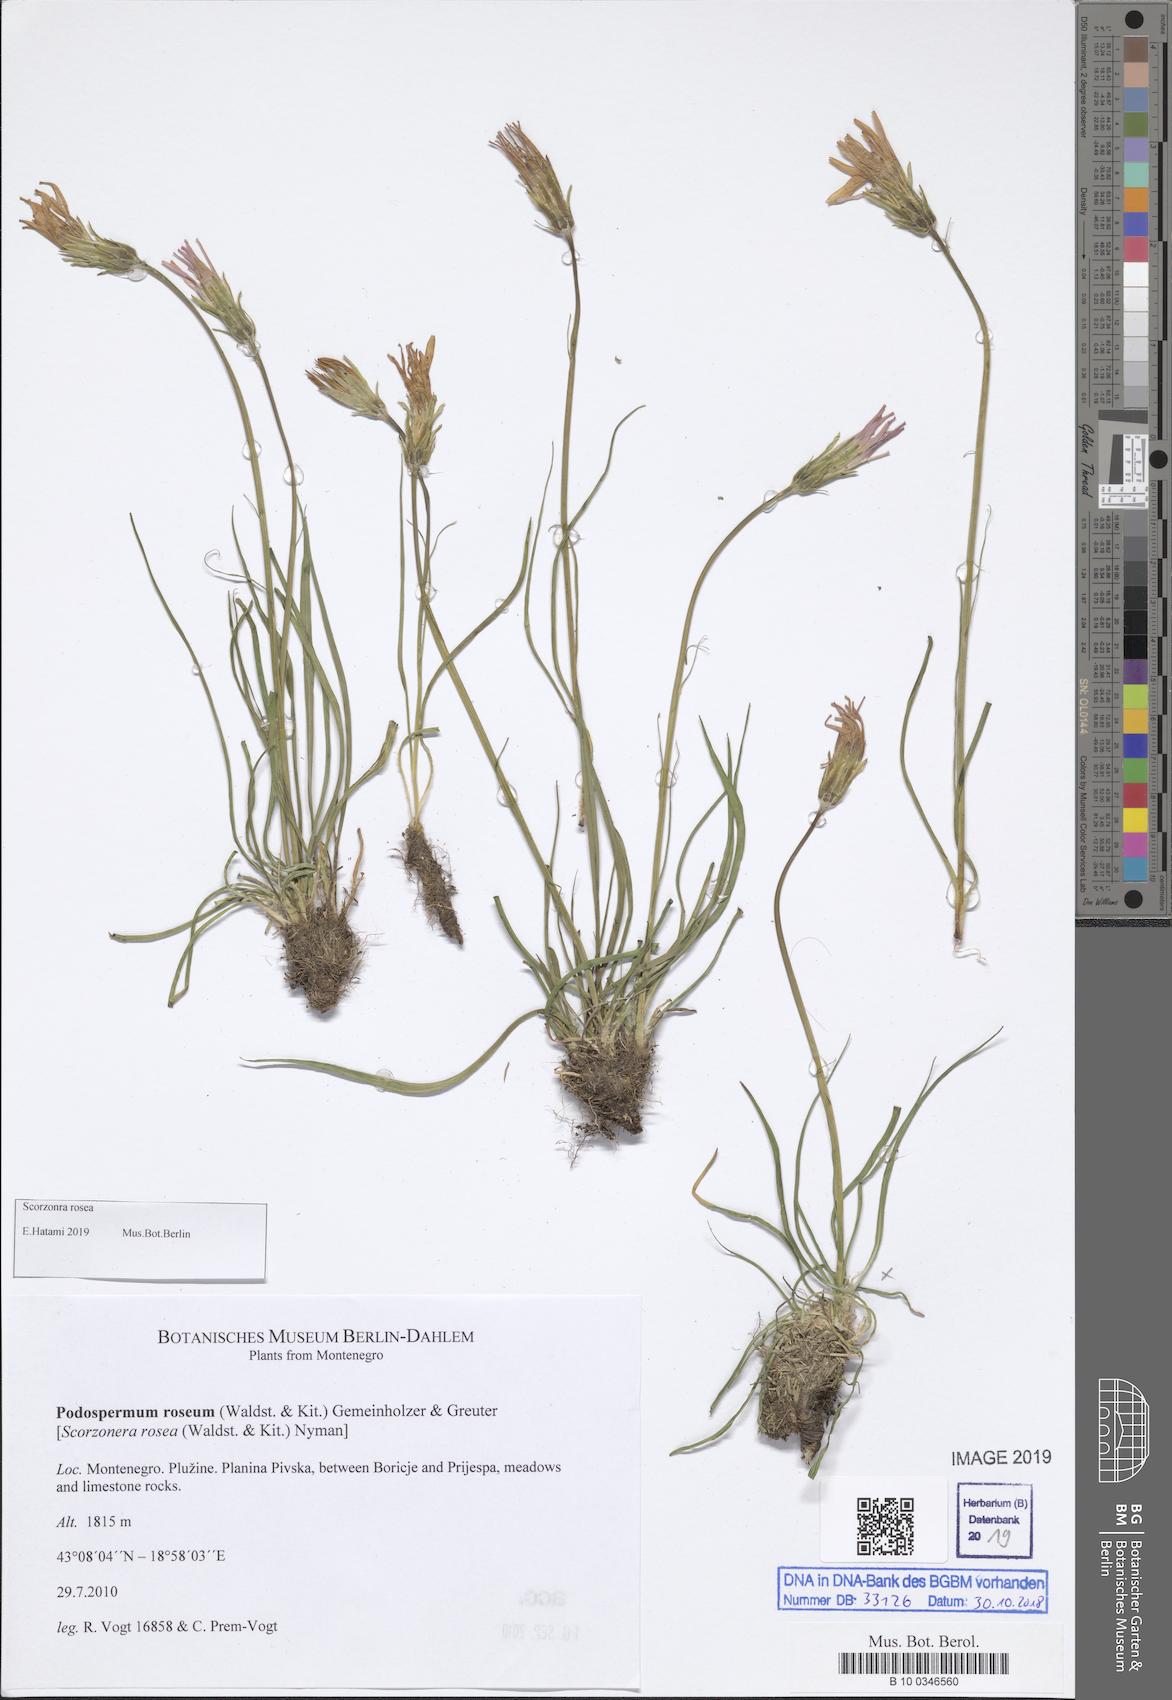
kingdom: Plantae
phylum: Tracheophyta
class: Magnoliopsida
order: Asterales
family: Asteraceae
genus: Scorzonera
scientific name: Scorzonera rosea
